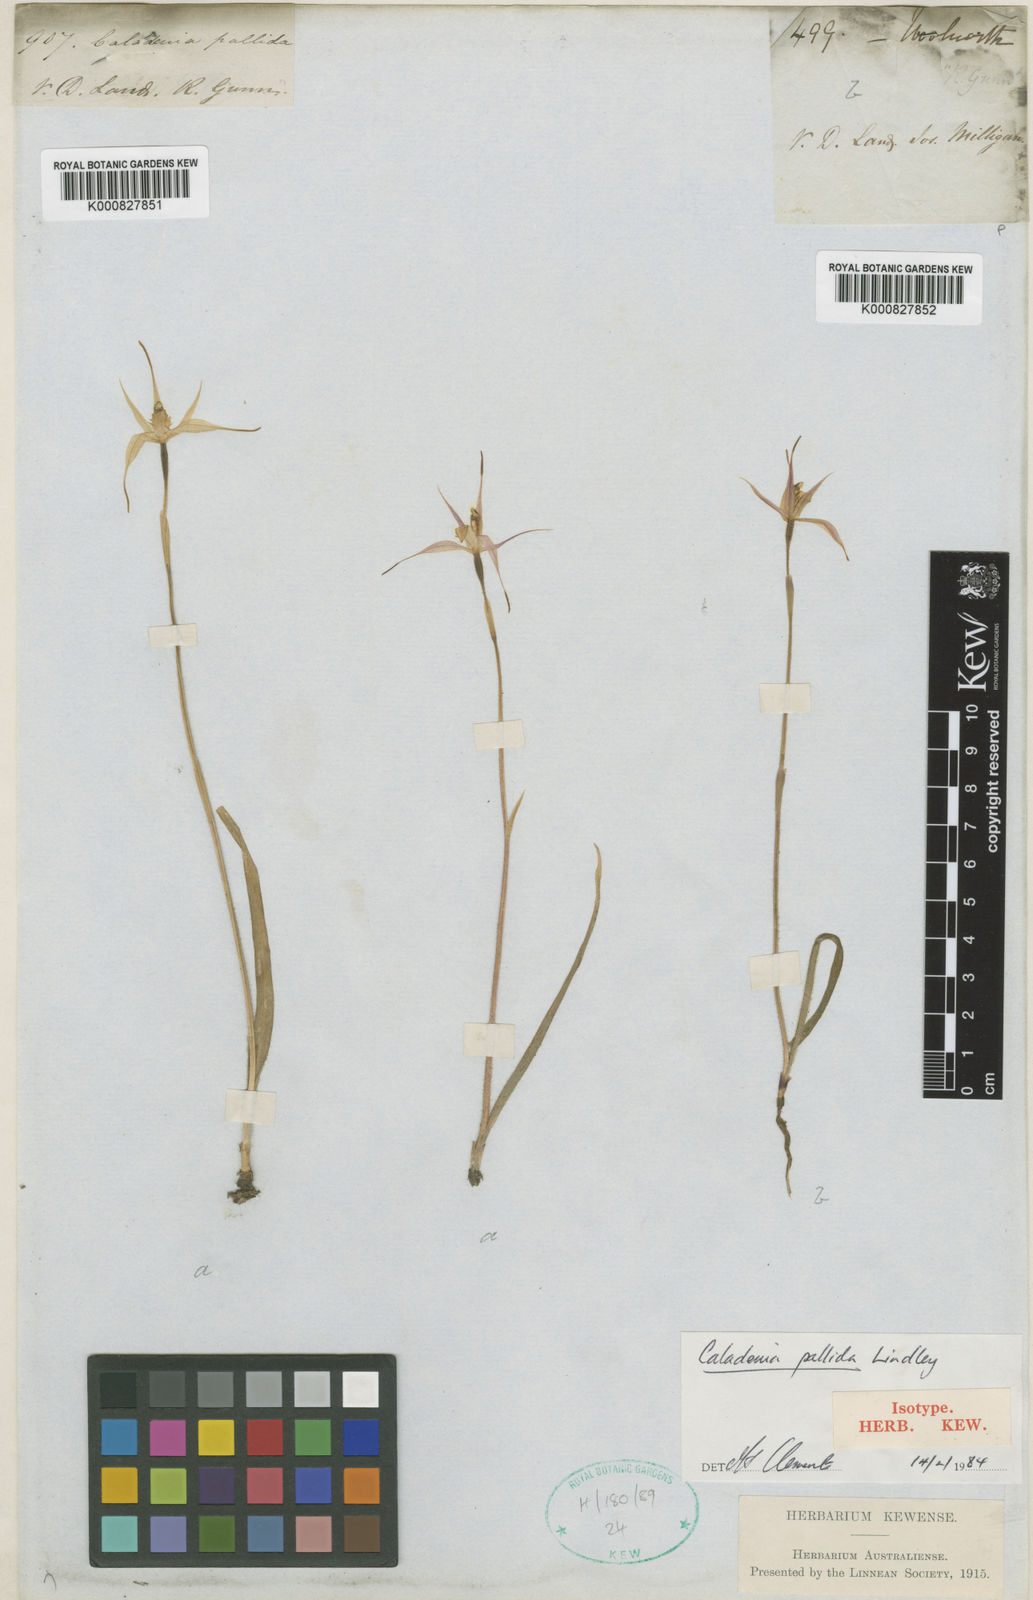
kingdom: Plantae
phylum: Tracheophyta
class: Liliopsida
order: Asparagales
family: Orchidaceae
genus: Caladenia
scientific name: Caladenia pallida
